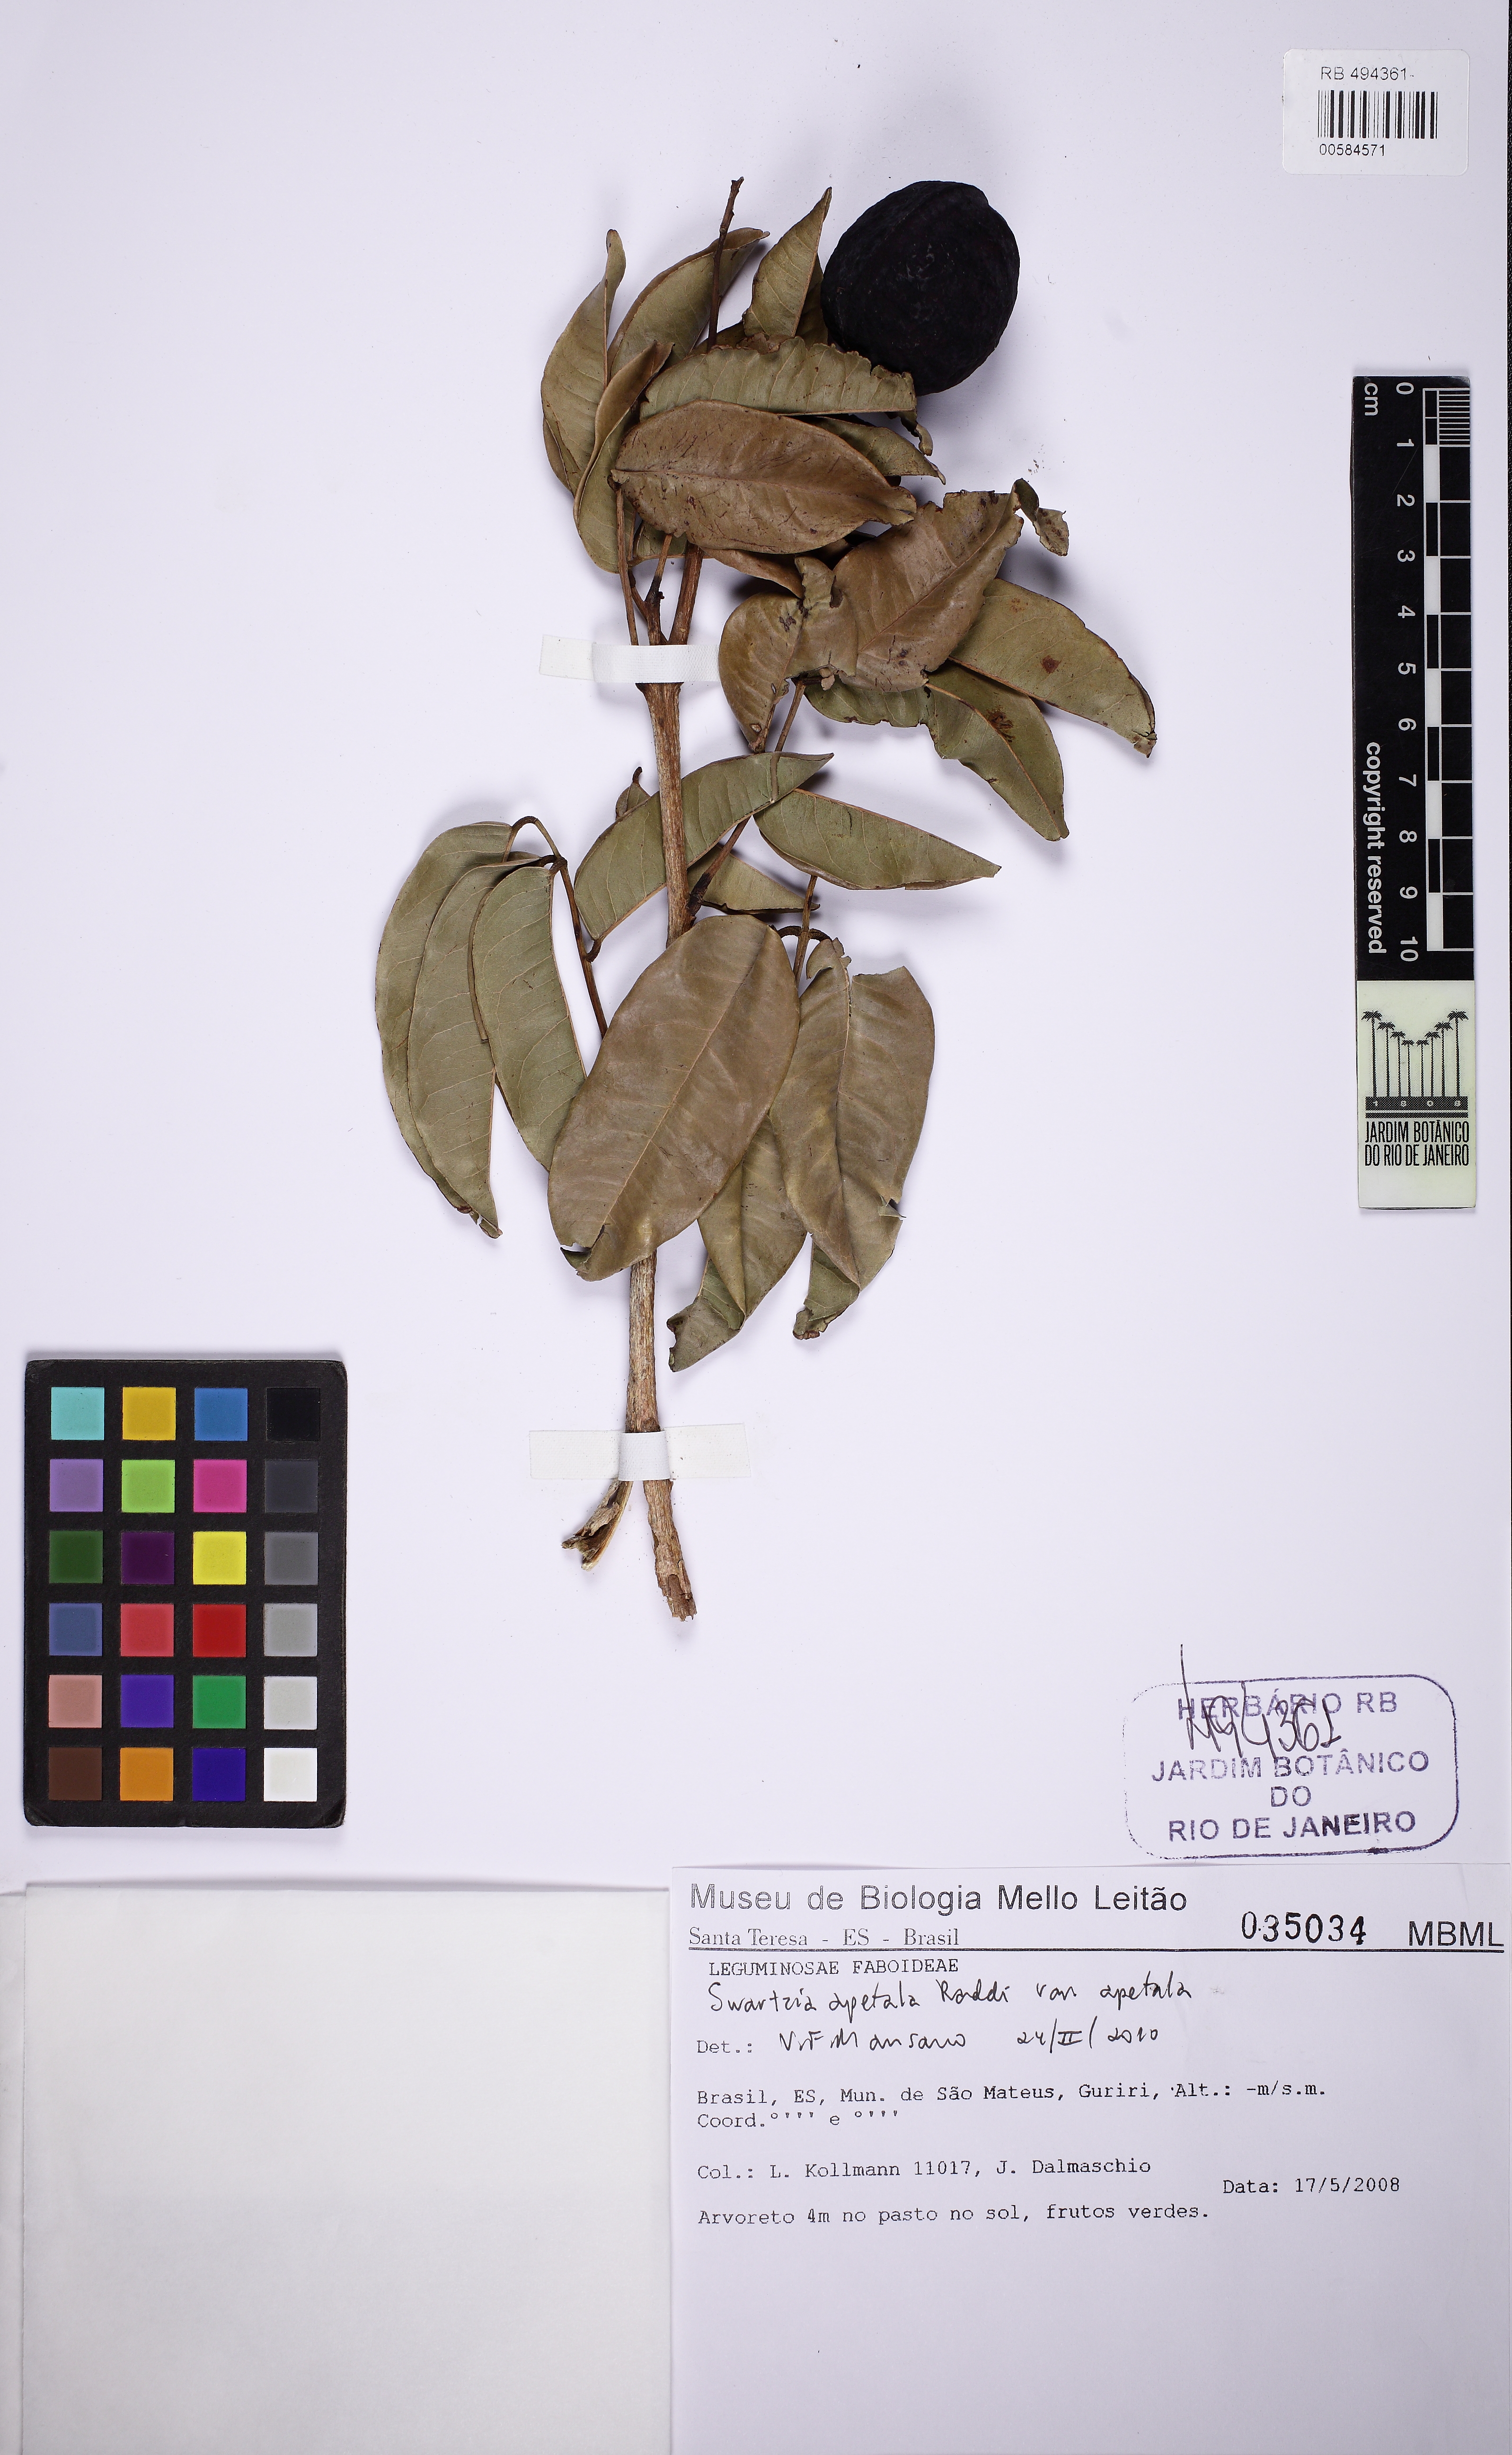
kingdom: Plantae
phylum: Tracheophyta
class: Magnoliopsida
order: Fabales
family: Fabaceae
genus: Swartzia
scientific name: Swartzia apetala
